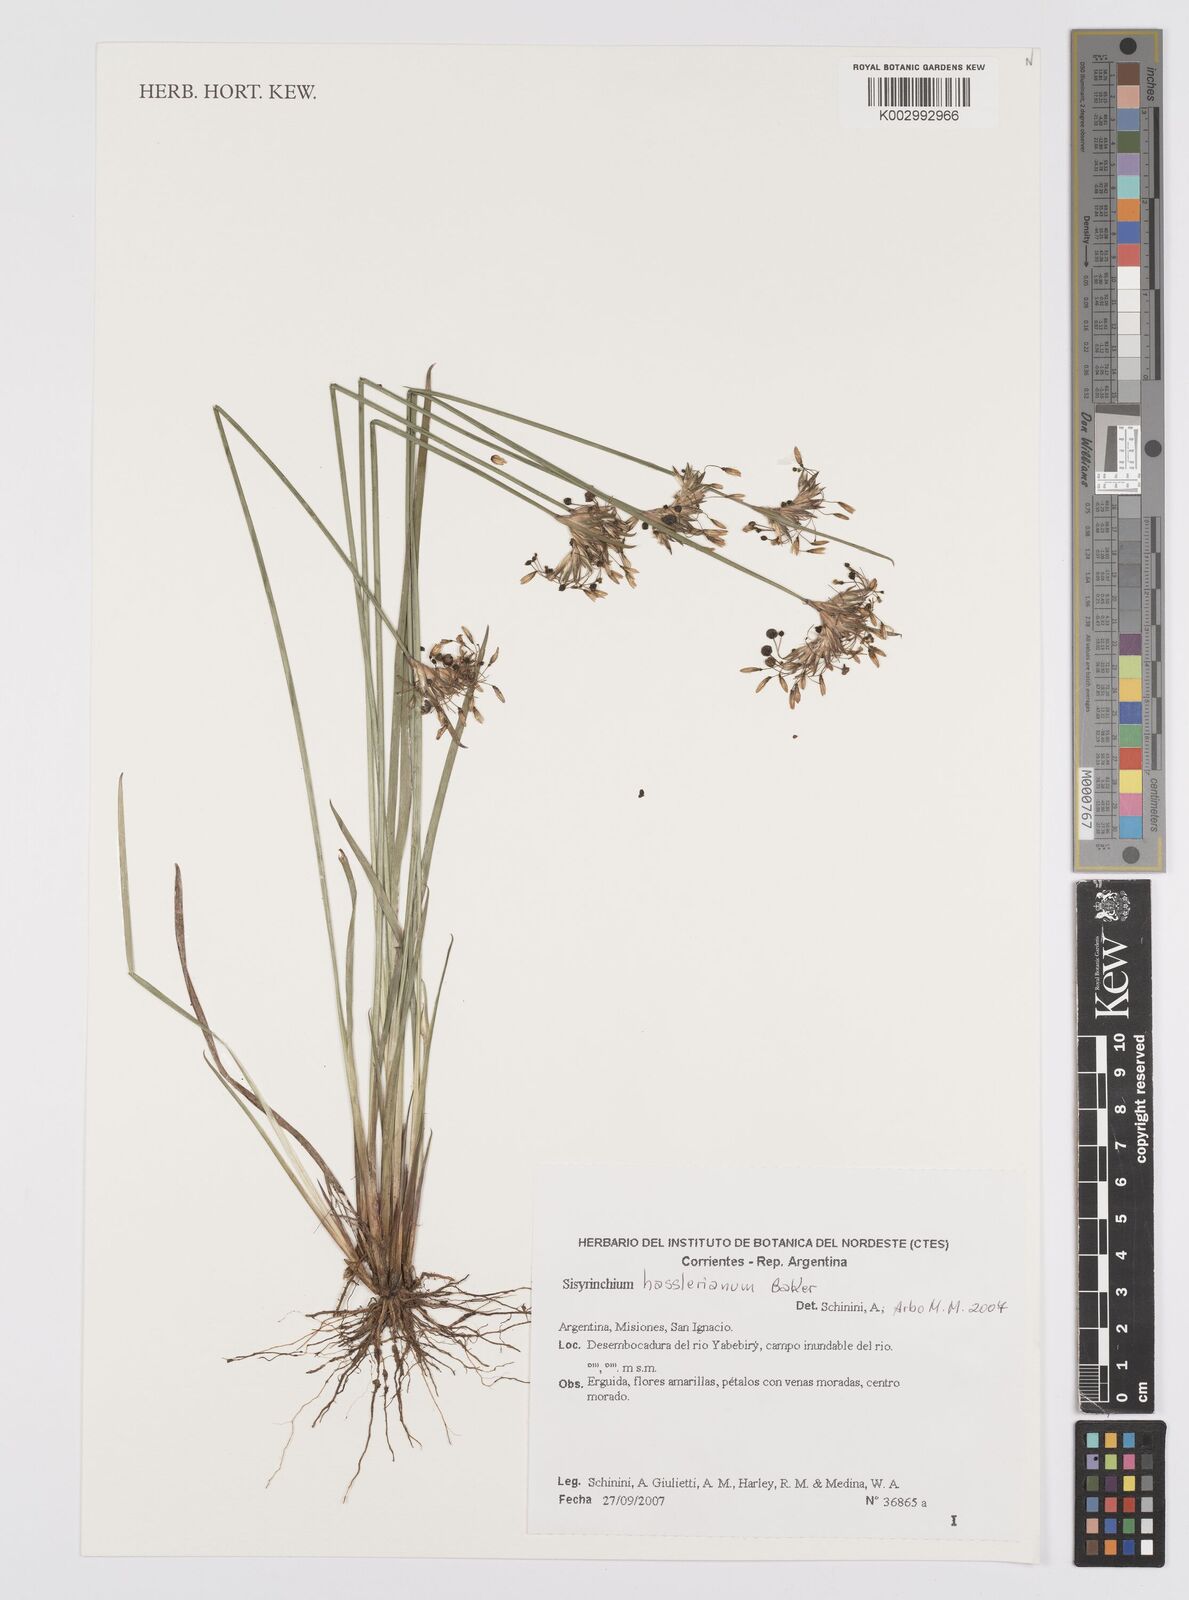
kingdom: Plantae
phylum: Tracheophyta
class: Liliopsida
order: Asparagales
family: Iridaceae
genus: Sisyrinchium
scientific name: Sisyrinchium hasslerianum
